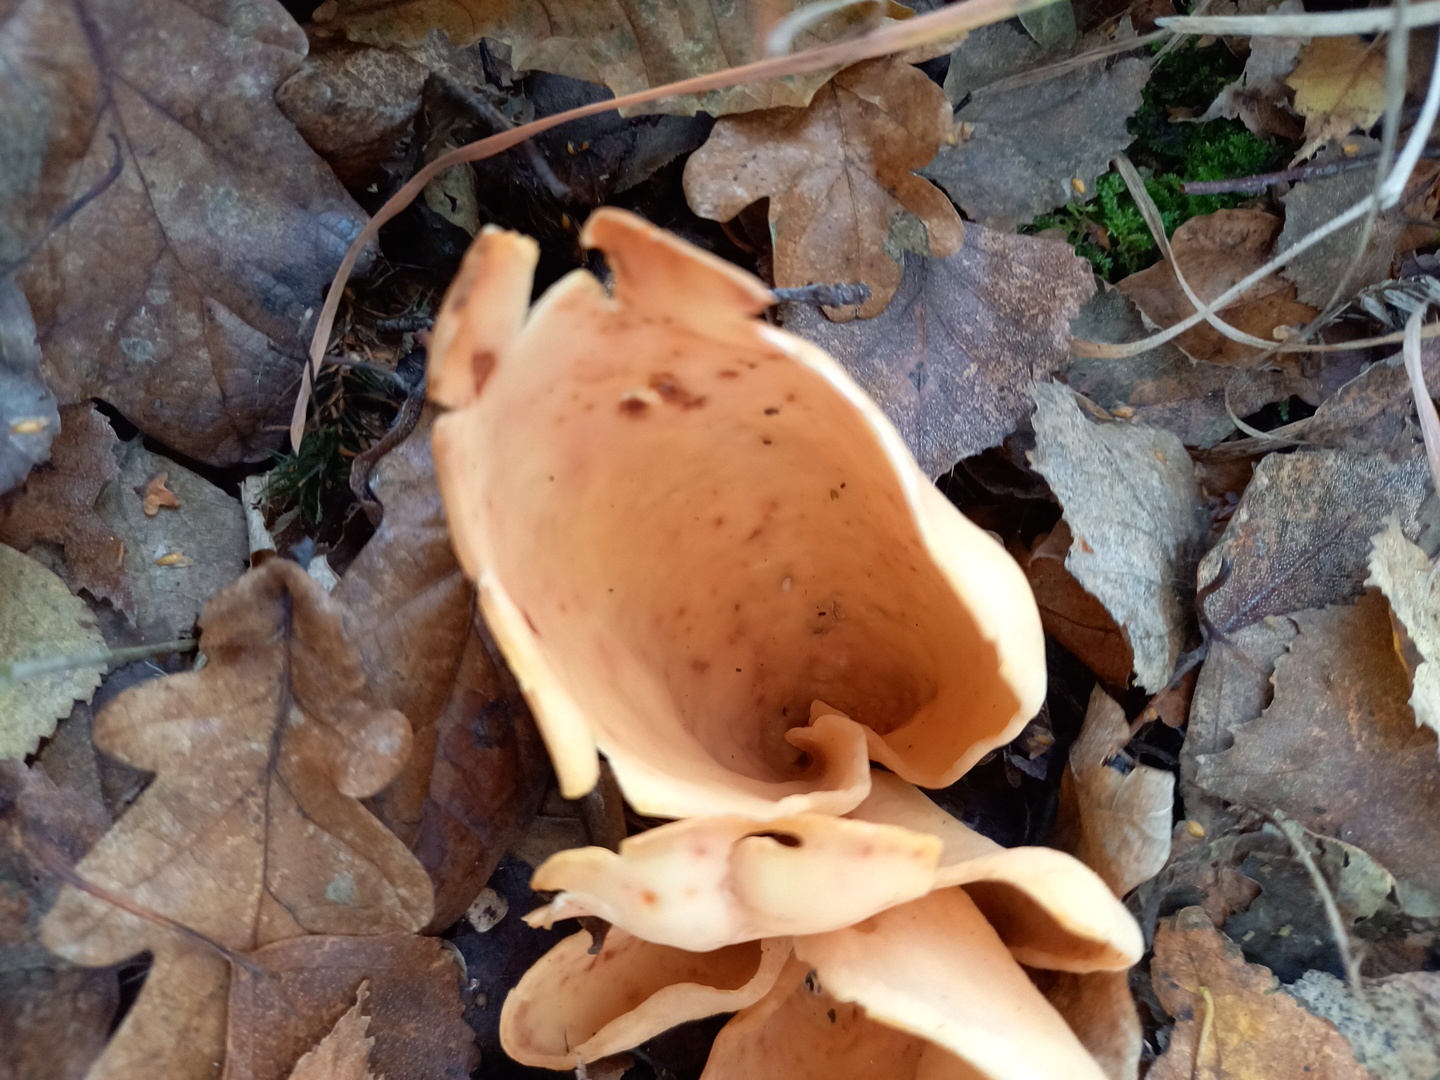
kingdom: Fungi
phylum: Ascomycota
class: Pezizomycetes
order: Pezizales
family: Otideaceae
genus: Otidea
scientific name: Otidea onotica
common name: æsel-ørebæger
